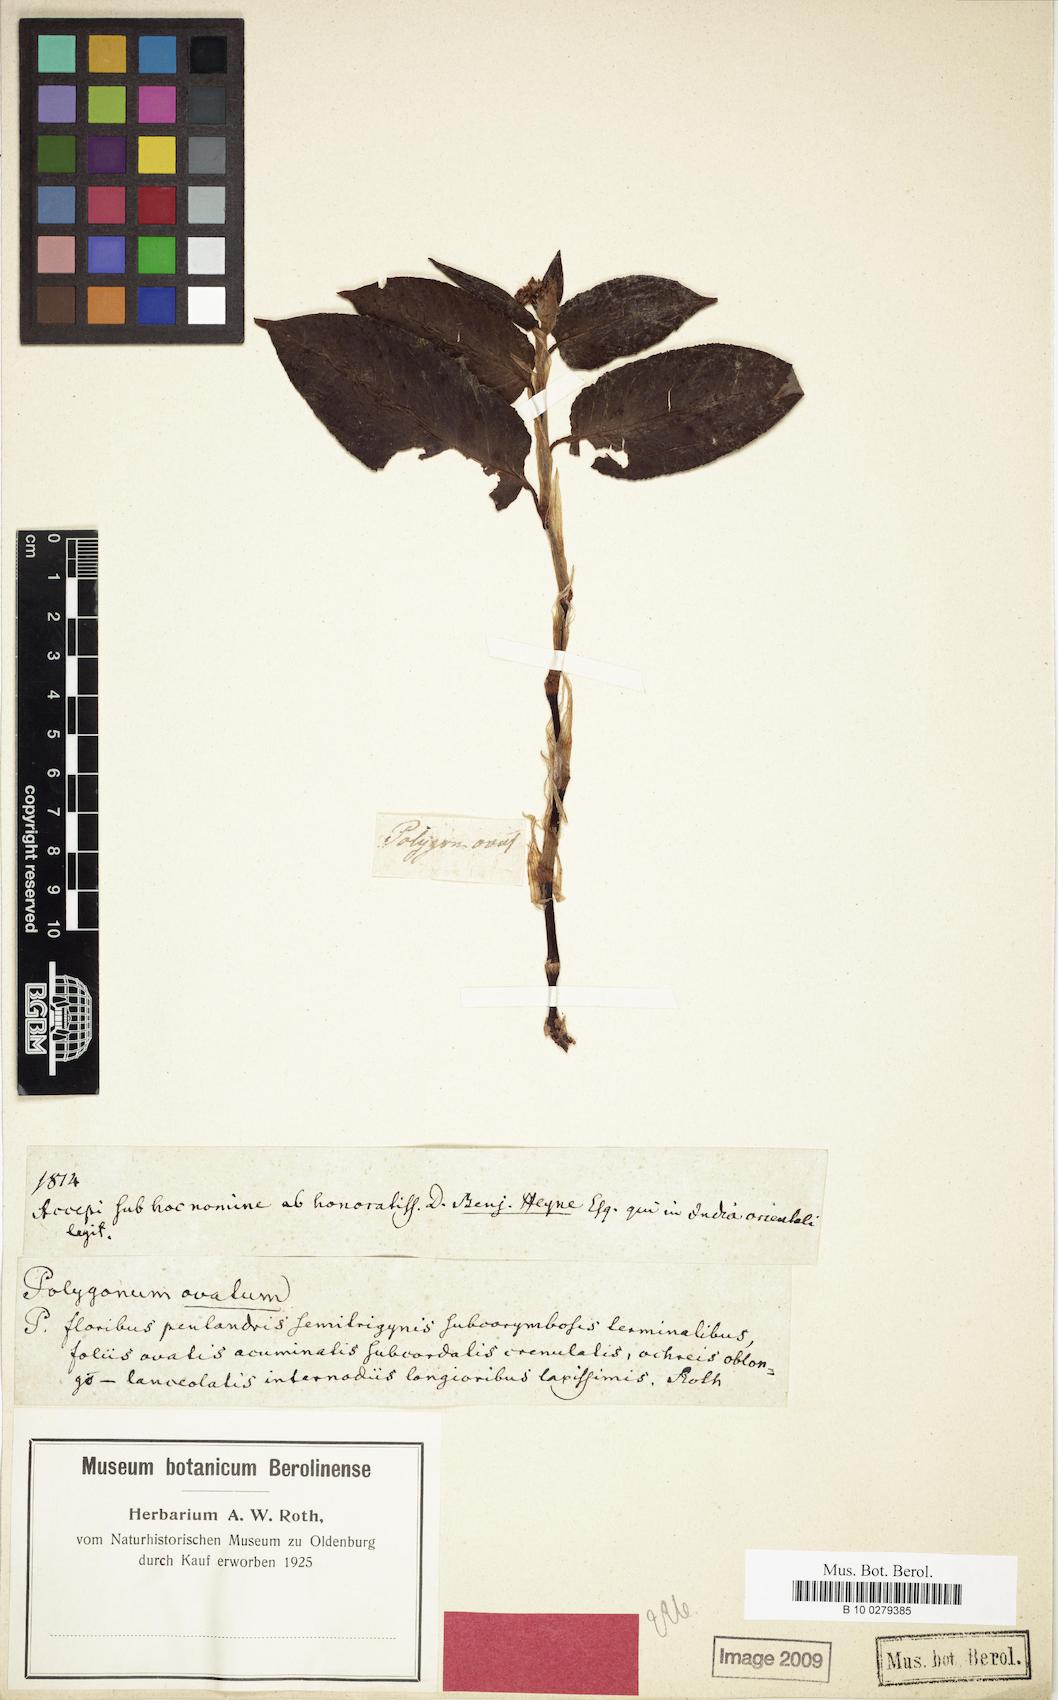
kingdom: Plantae
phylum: Tracheophyta
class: Magnoliopsida
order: Caryophyllales
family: Polygonaceae
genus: Bistorta
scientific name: Bistorta ochotensis
